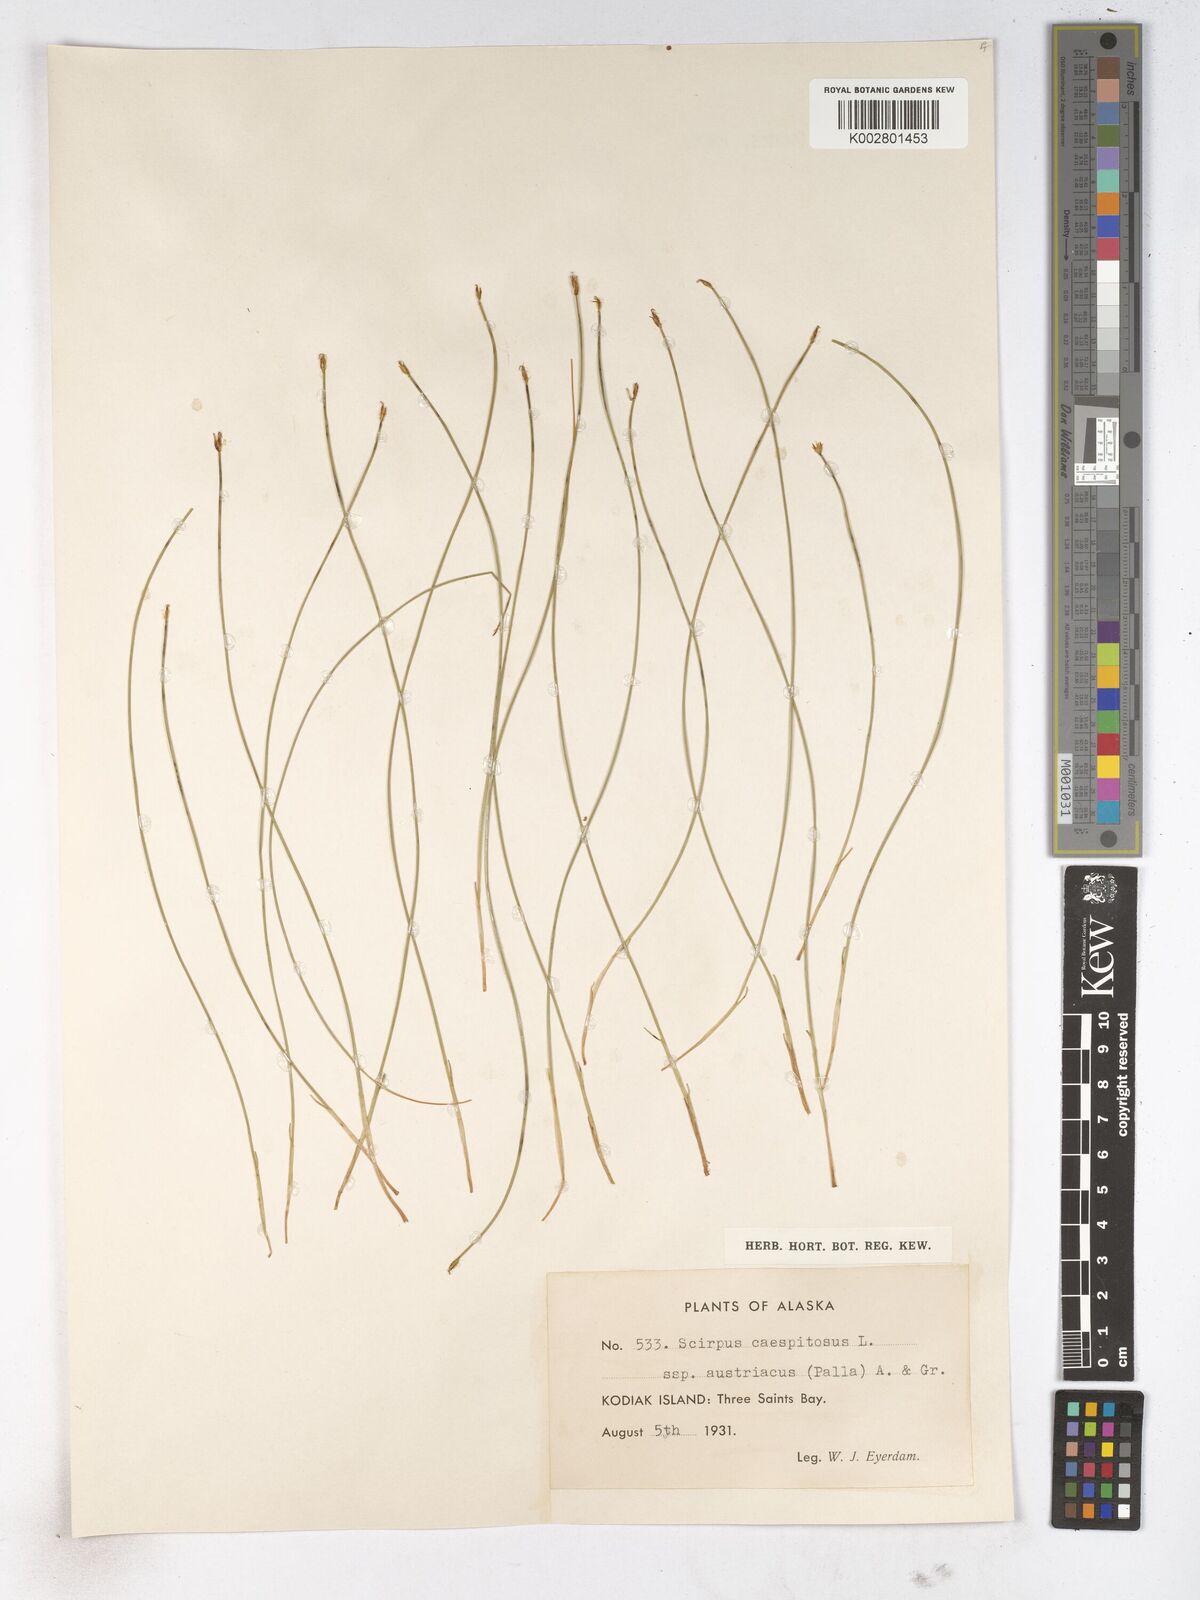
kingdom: Plantae
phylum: Tracheophyta
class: Liliopsida
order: Poales
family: Cyperaceae
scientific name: Cyperaceae
